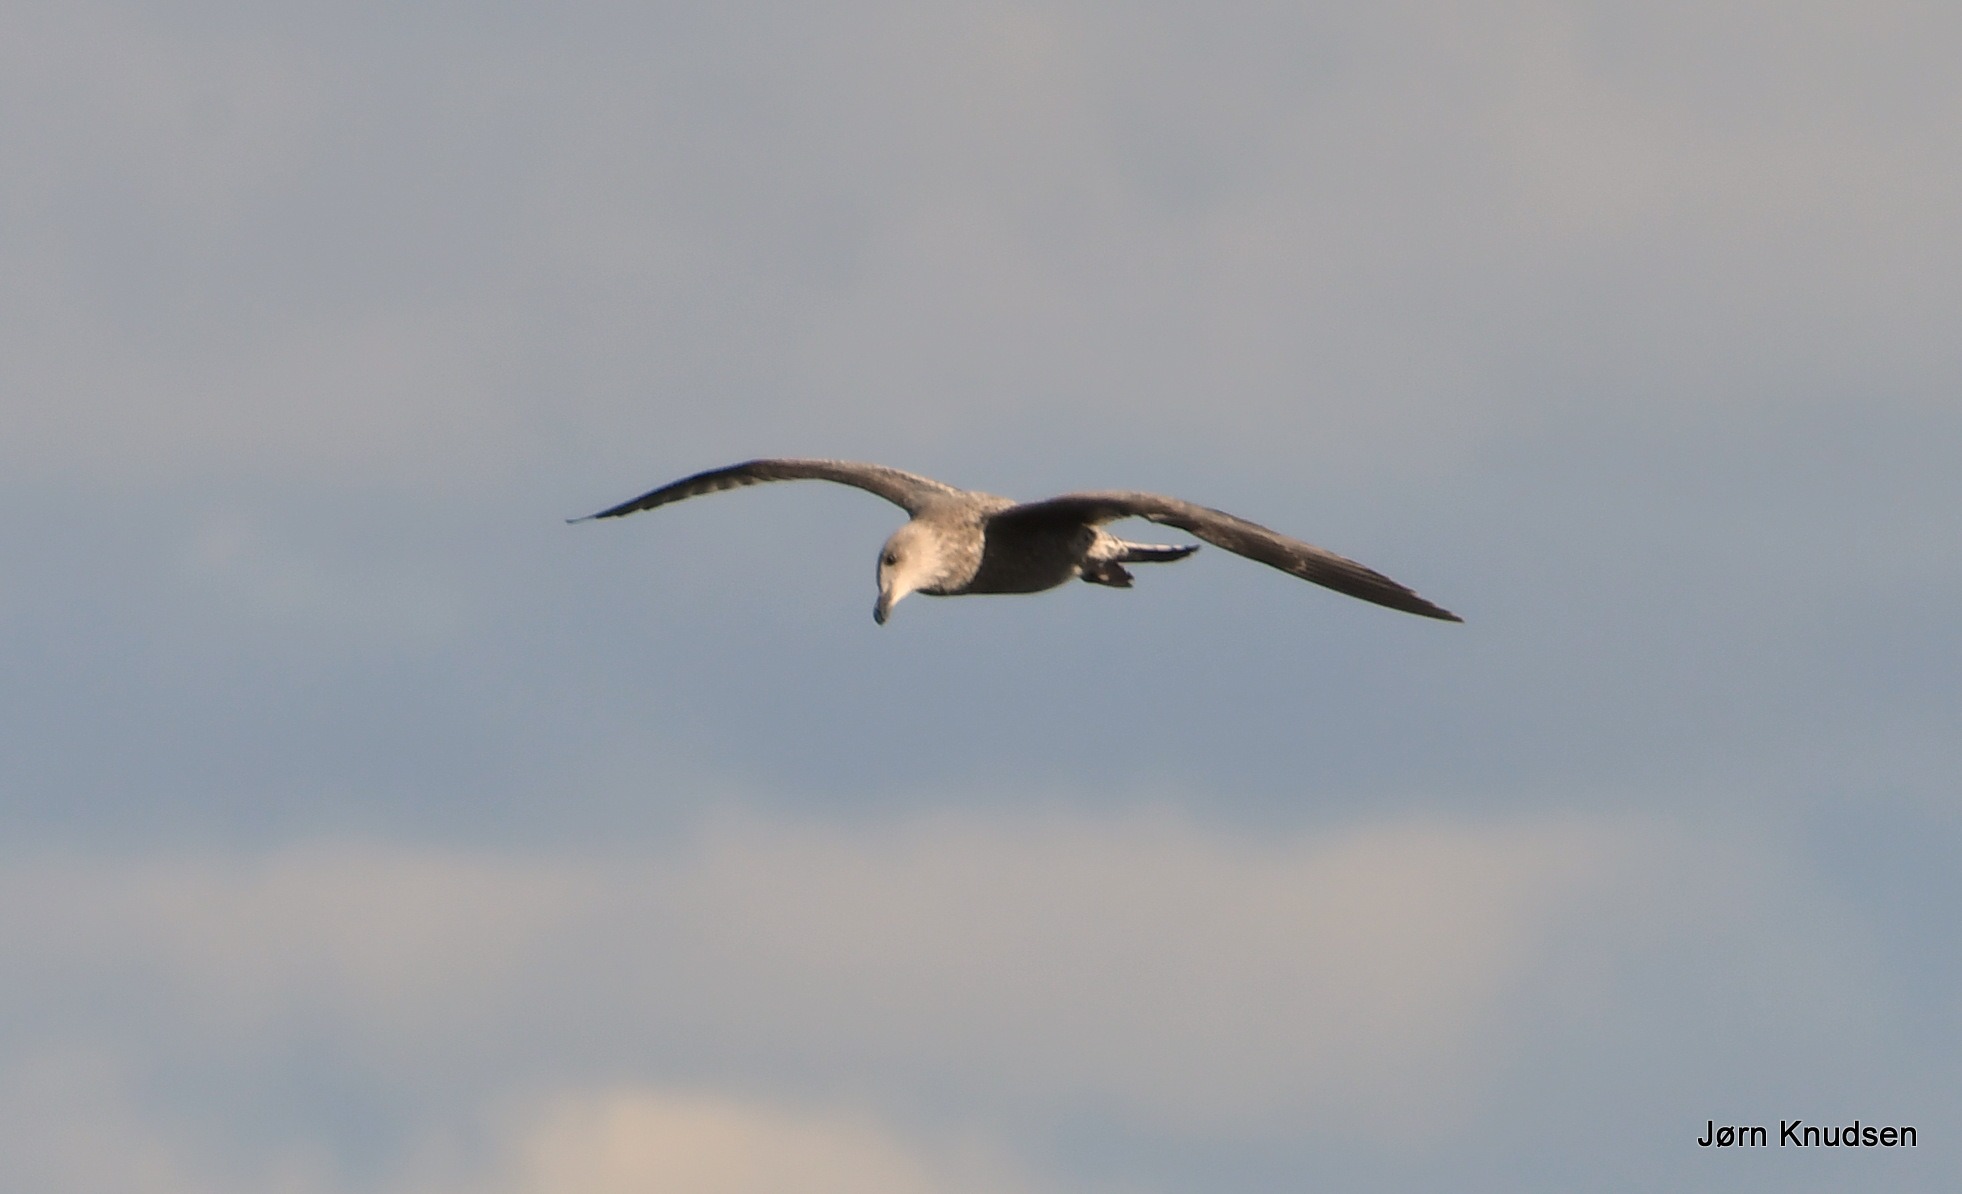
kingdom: Animalia
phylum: Chordata
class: Aves
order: Charadriiformes
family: Laridae
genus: Larus
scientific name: Larus argentatus
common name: Sølvmåge
